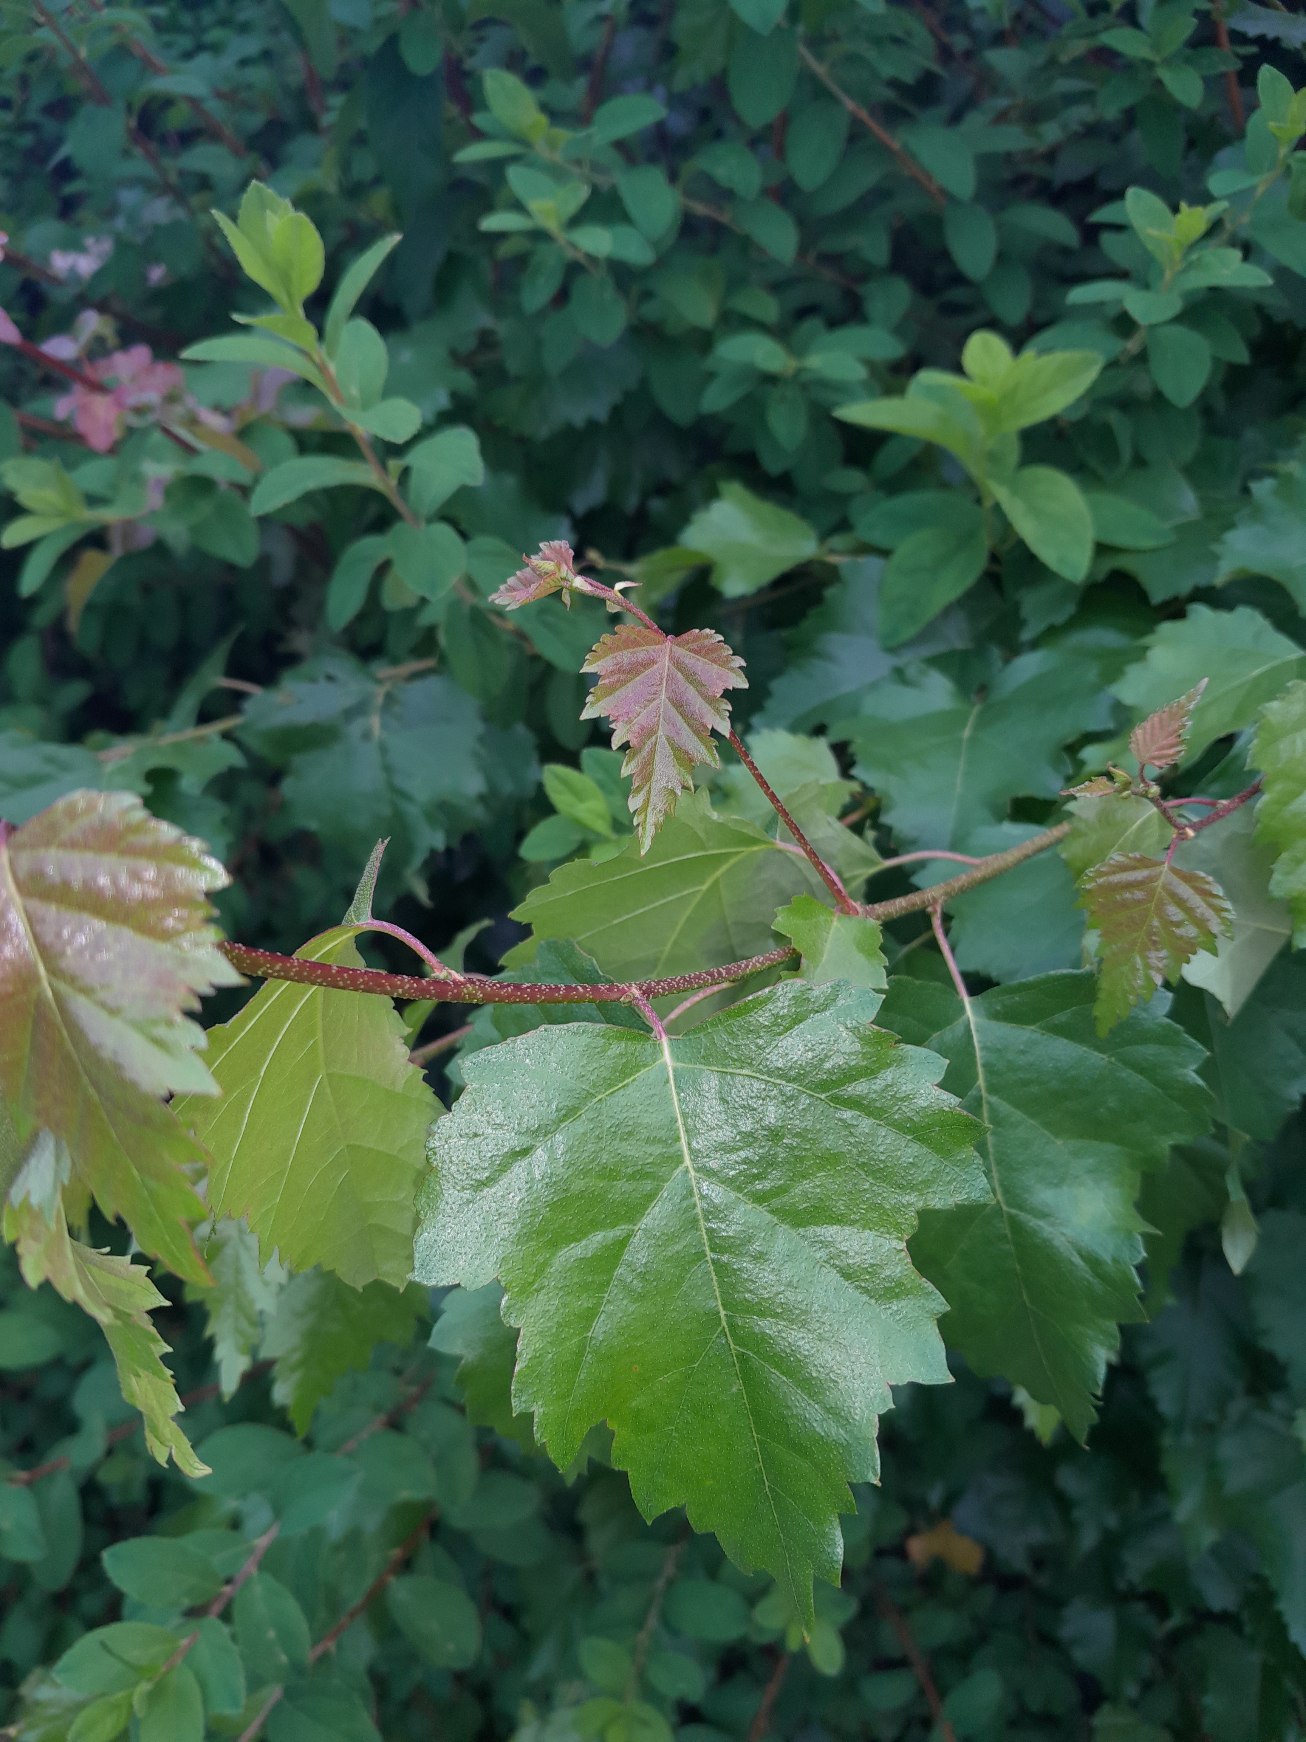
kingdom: Plantae
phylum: Tracheophyta
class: Magnoliopsida
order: Fagales
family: Betulaceae
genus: Betula
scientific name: Betula pendula
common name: Vorte-birk
